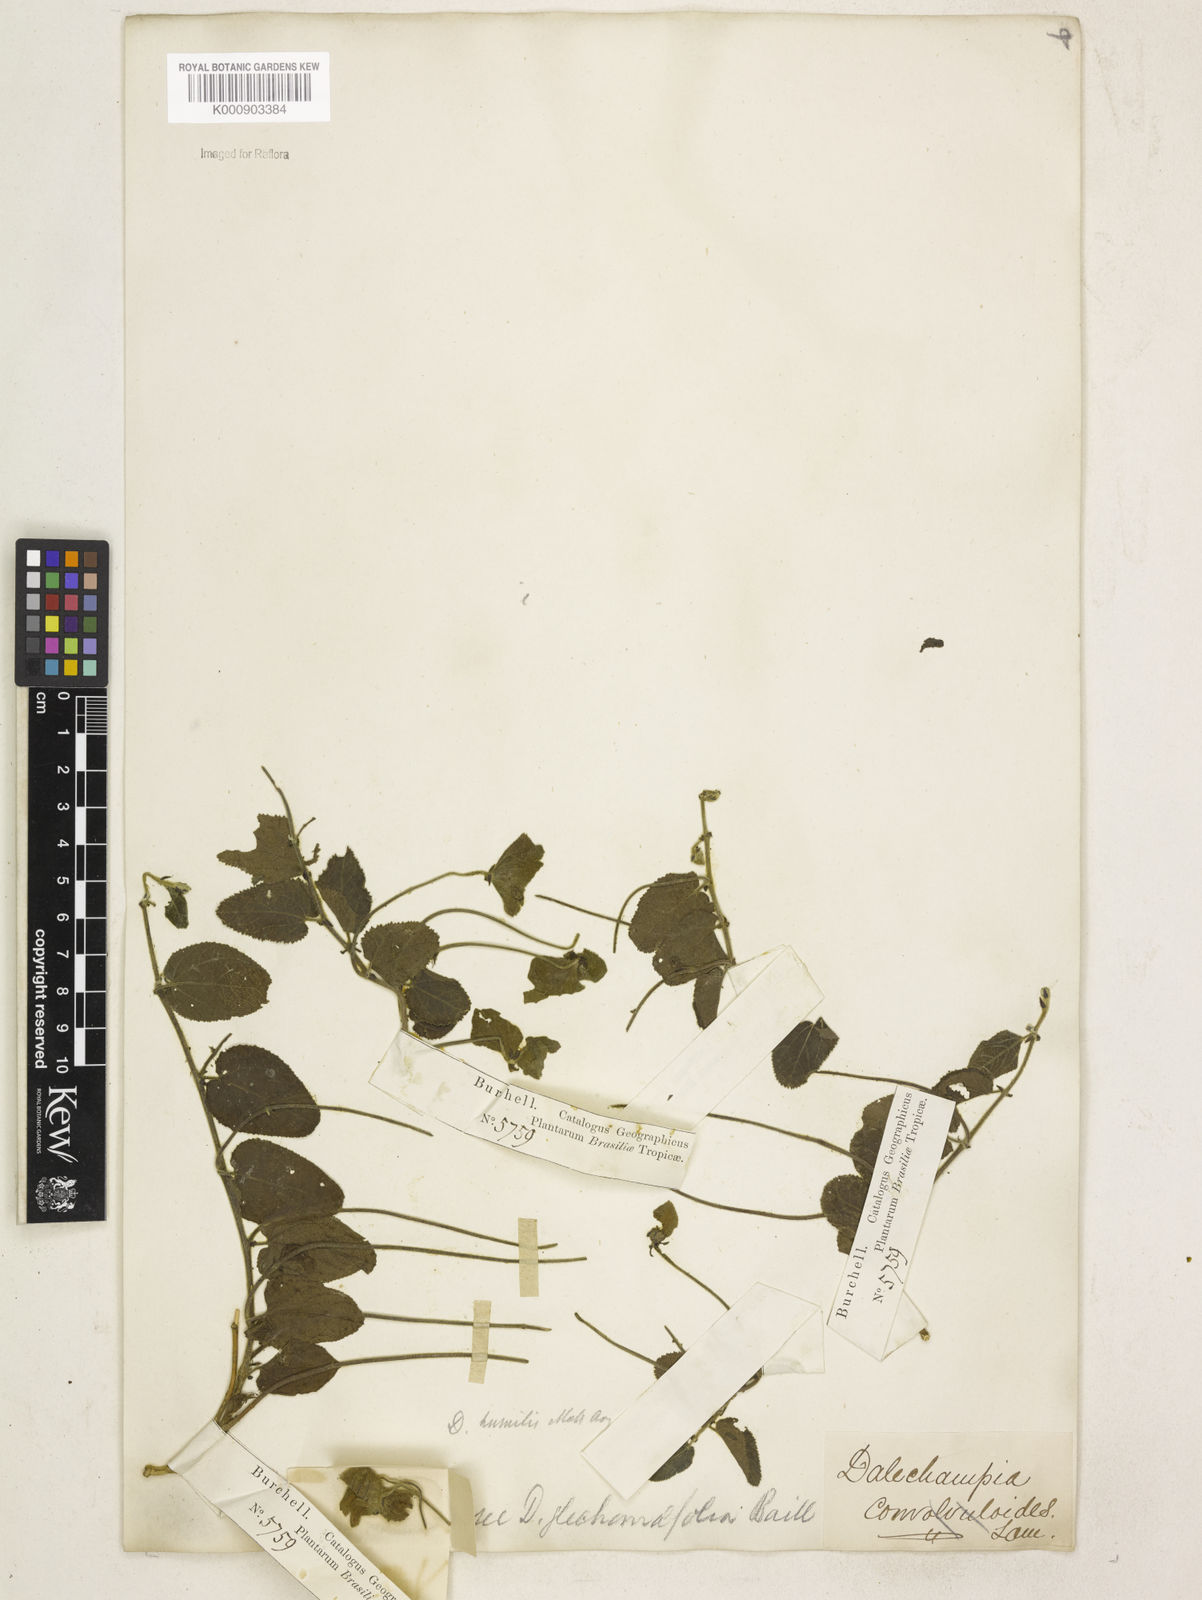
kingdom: Plantae
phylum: Tracheophyta
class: Magnoliopsida
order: Malpighiales
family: Euphorbiaceae
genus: Dalechampia
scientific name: Dalechampia
